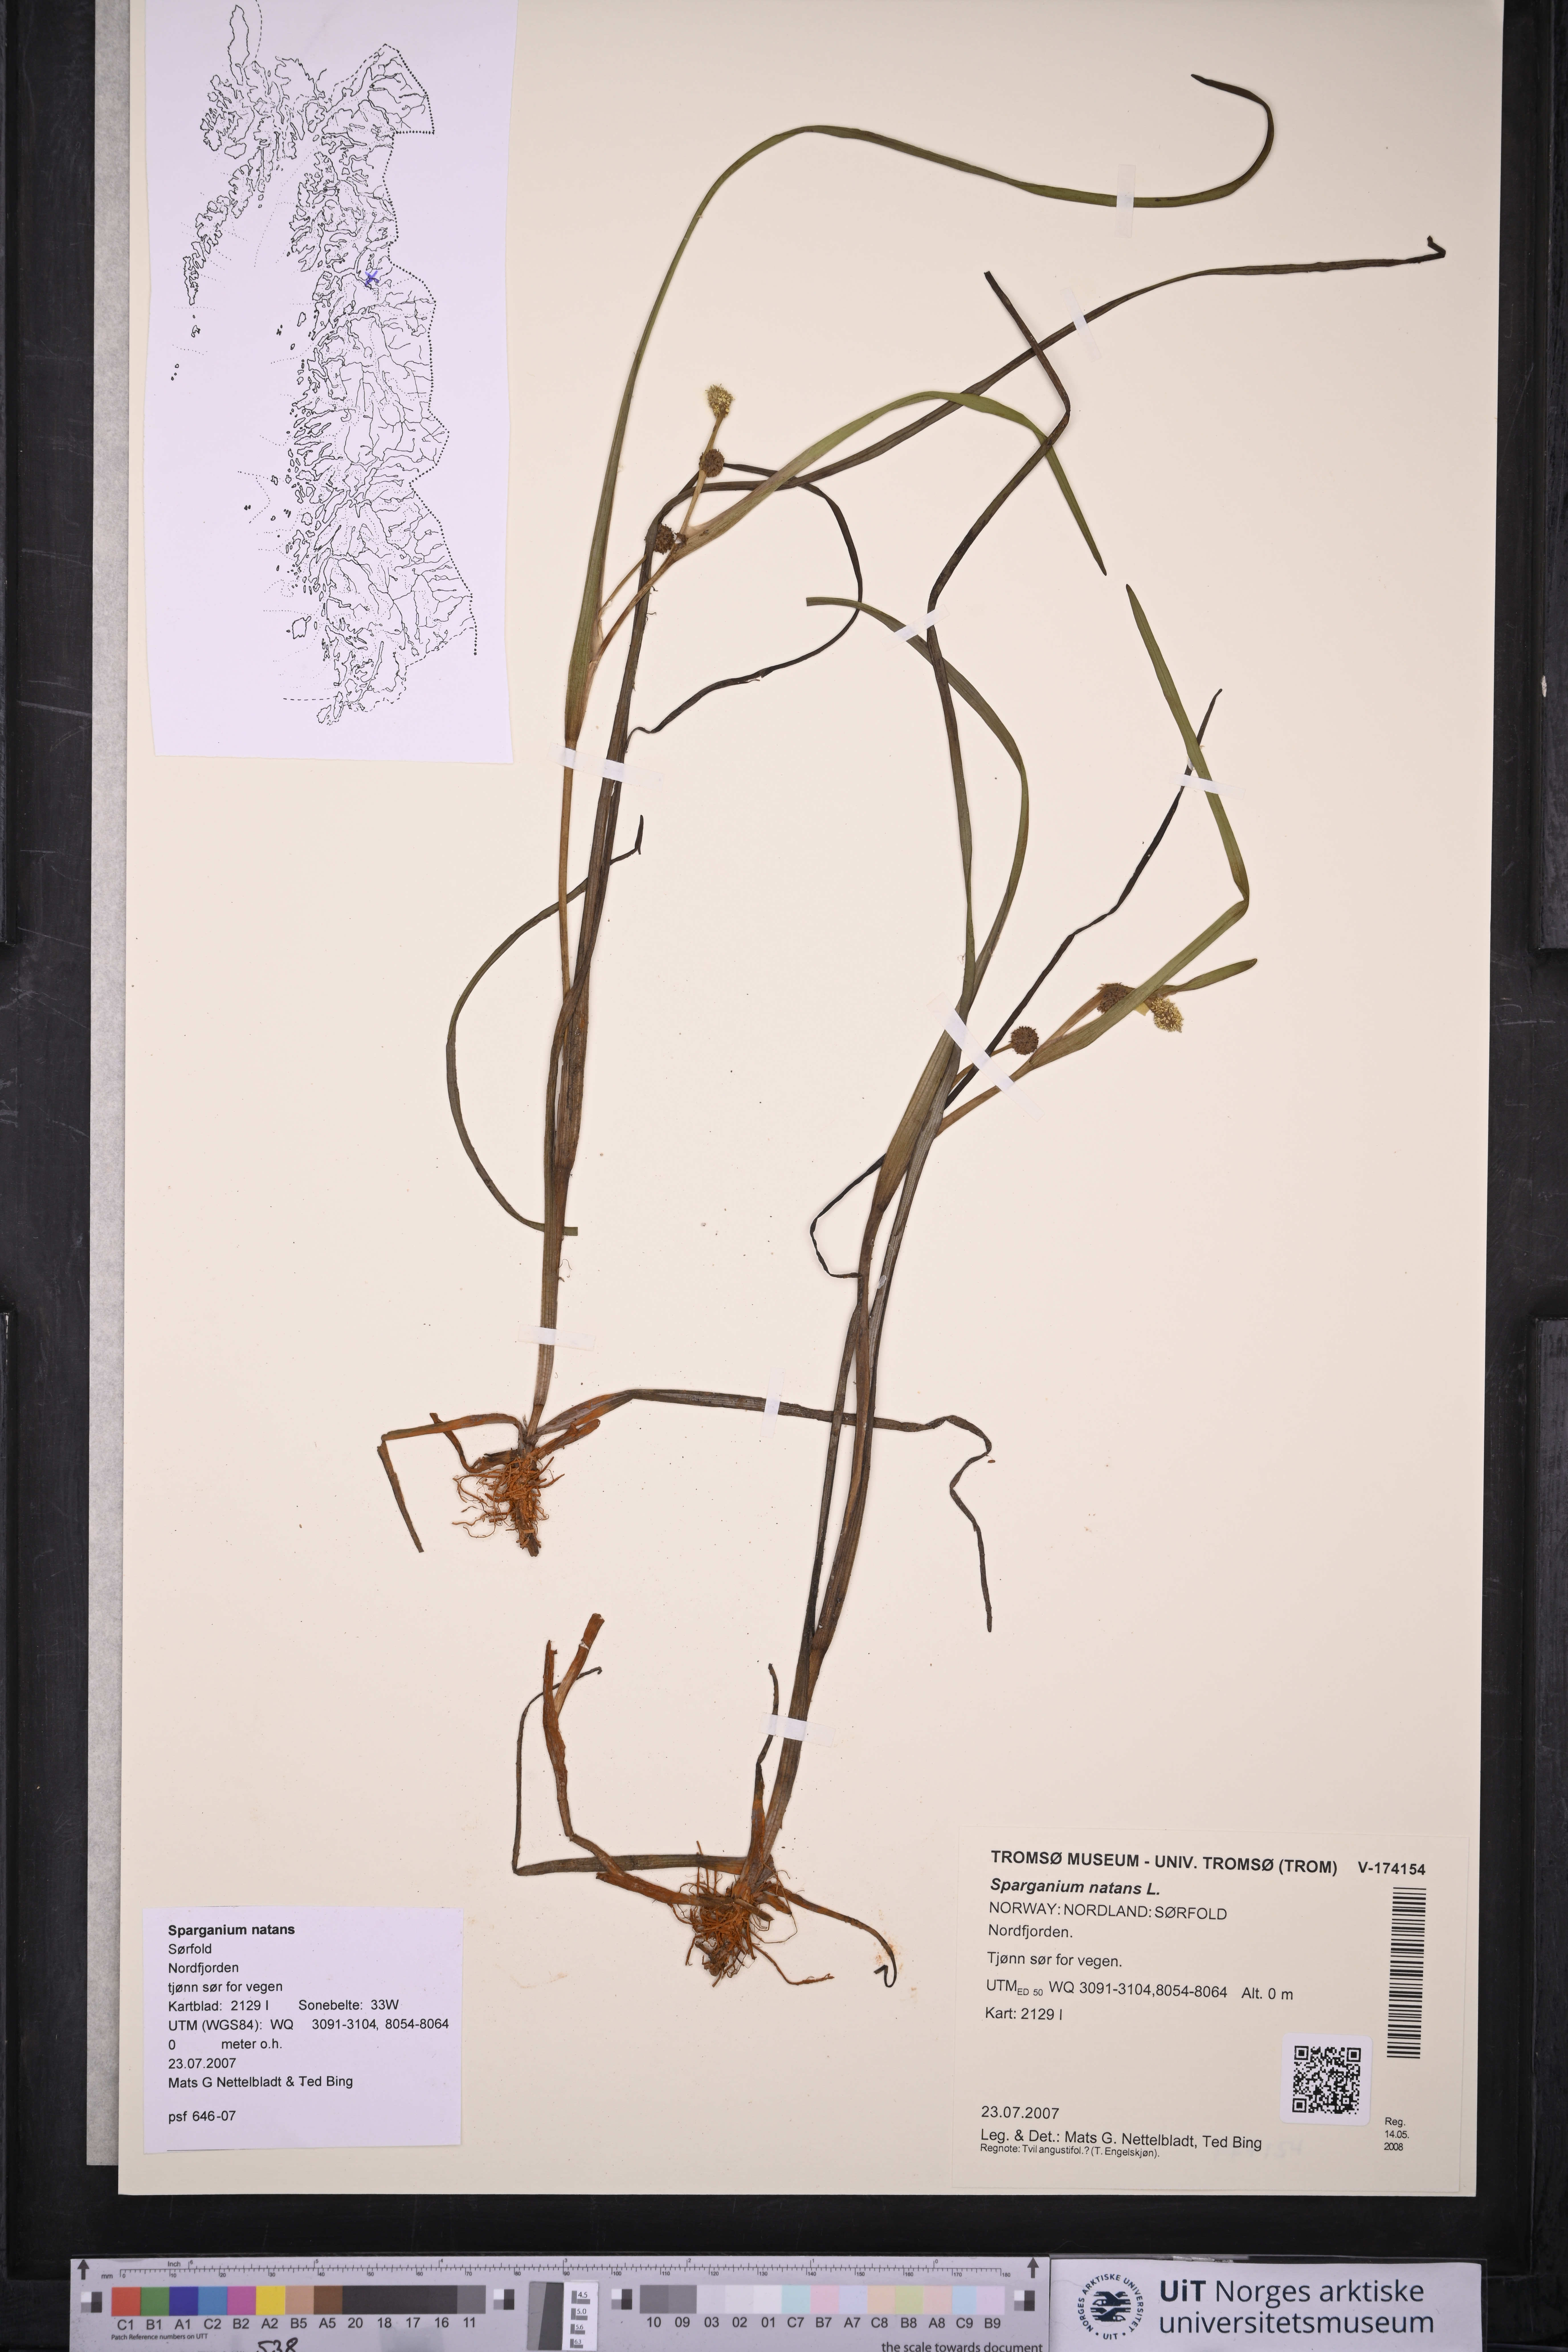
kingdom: Plantae
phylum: Tracheophyta
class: Liliopsida
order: Poales
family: Typhaceae
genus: Sparganium
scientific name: Sparganium natans
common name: Least bur-reed
